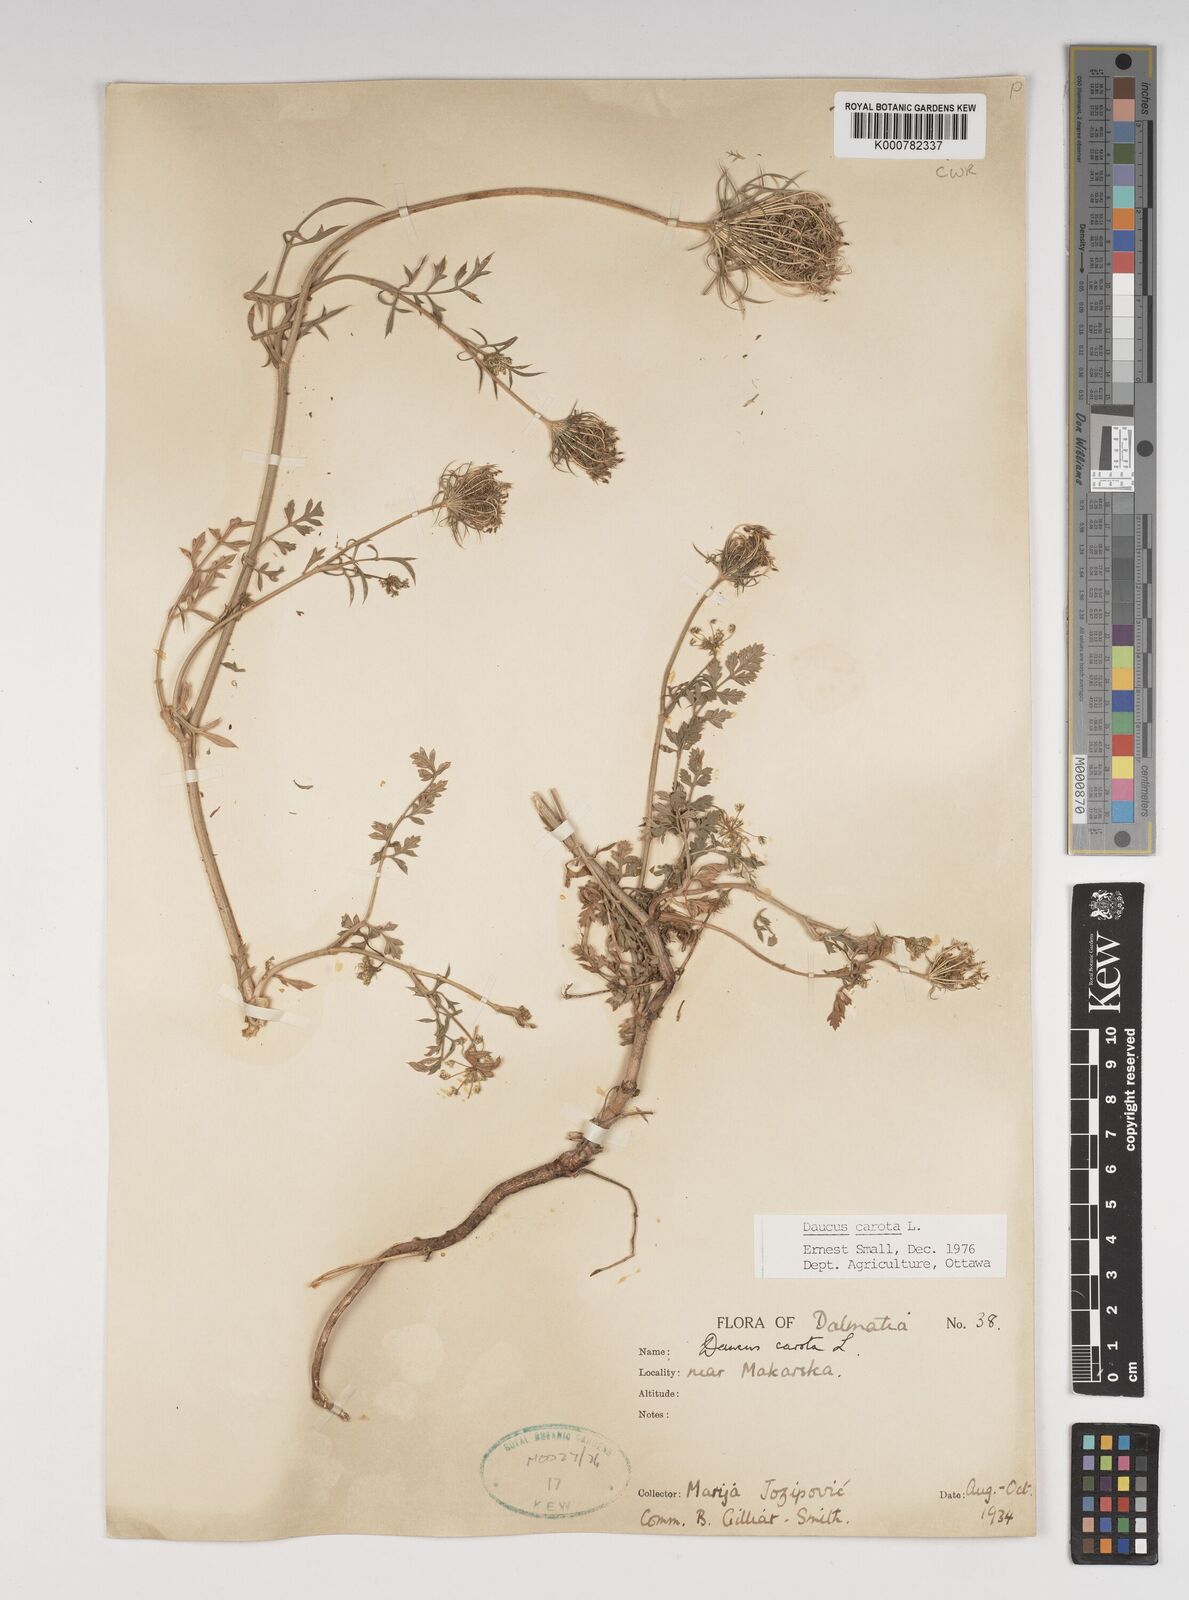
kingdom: Plantae
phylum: Tracheophyta
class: Magnoliopsida
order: Apiales
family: Apiaceae
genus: Daucus
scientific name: Daucus carota
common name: Wild carrot
